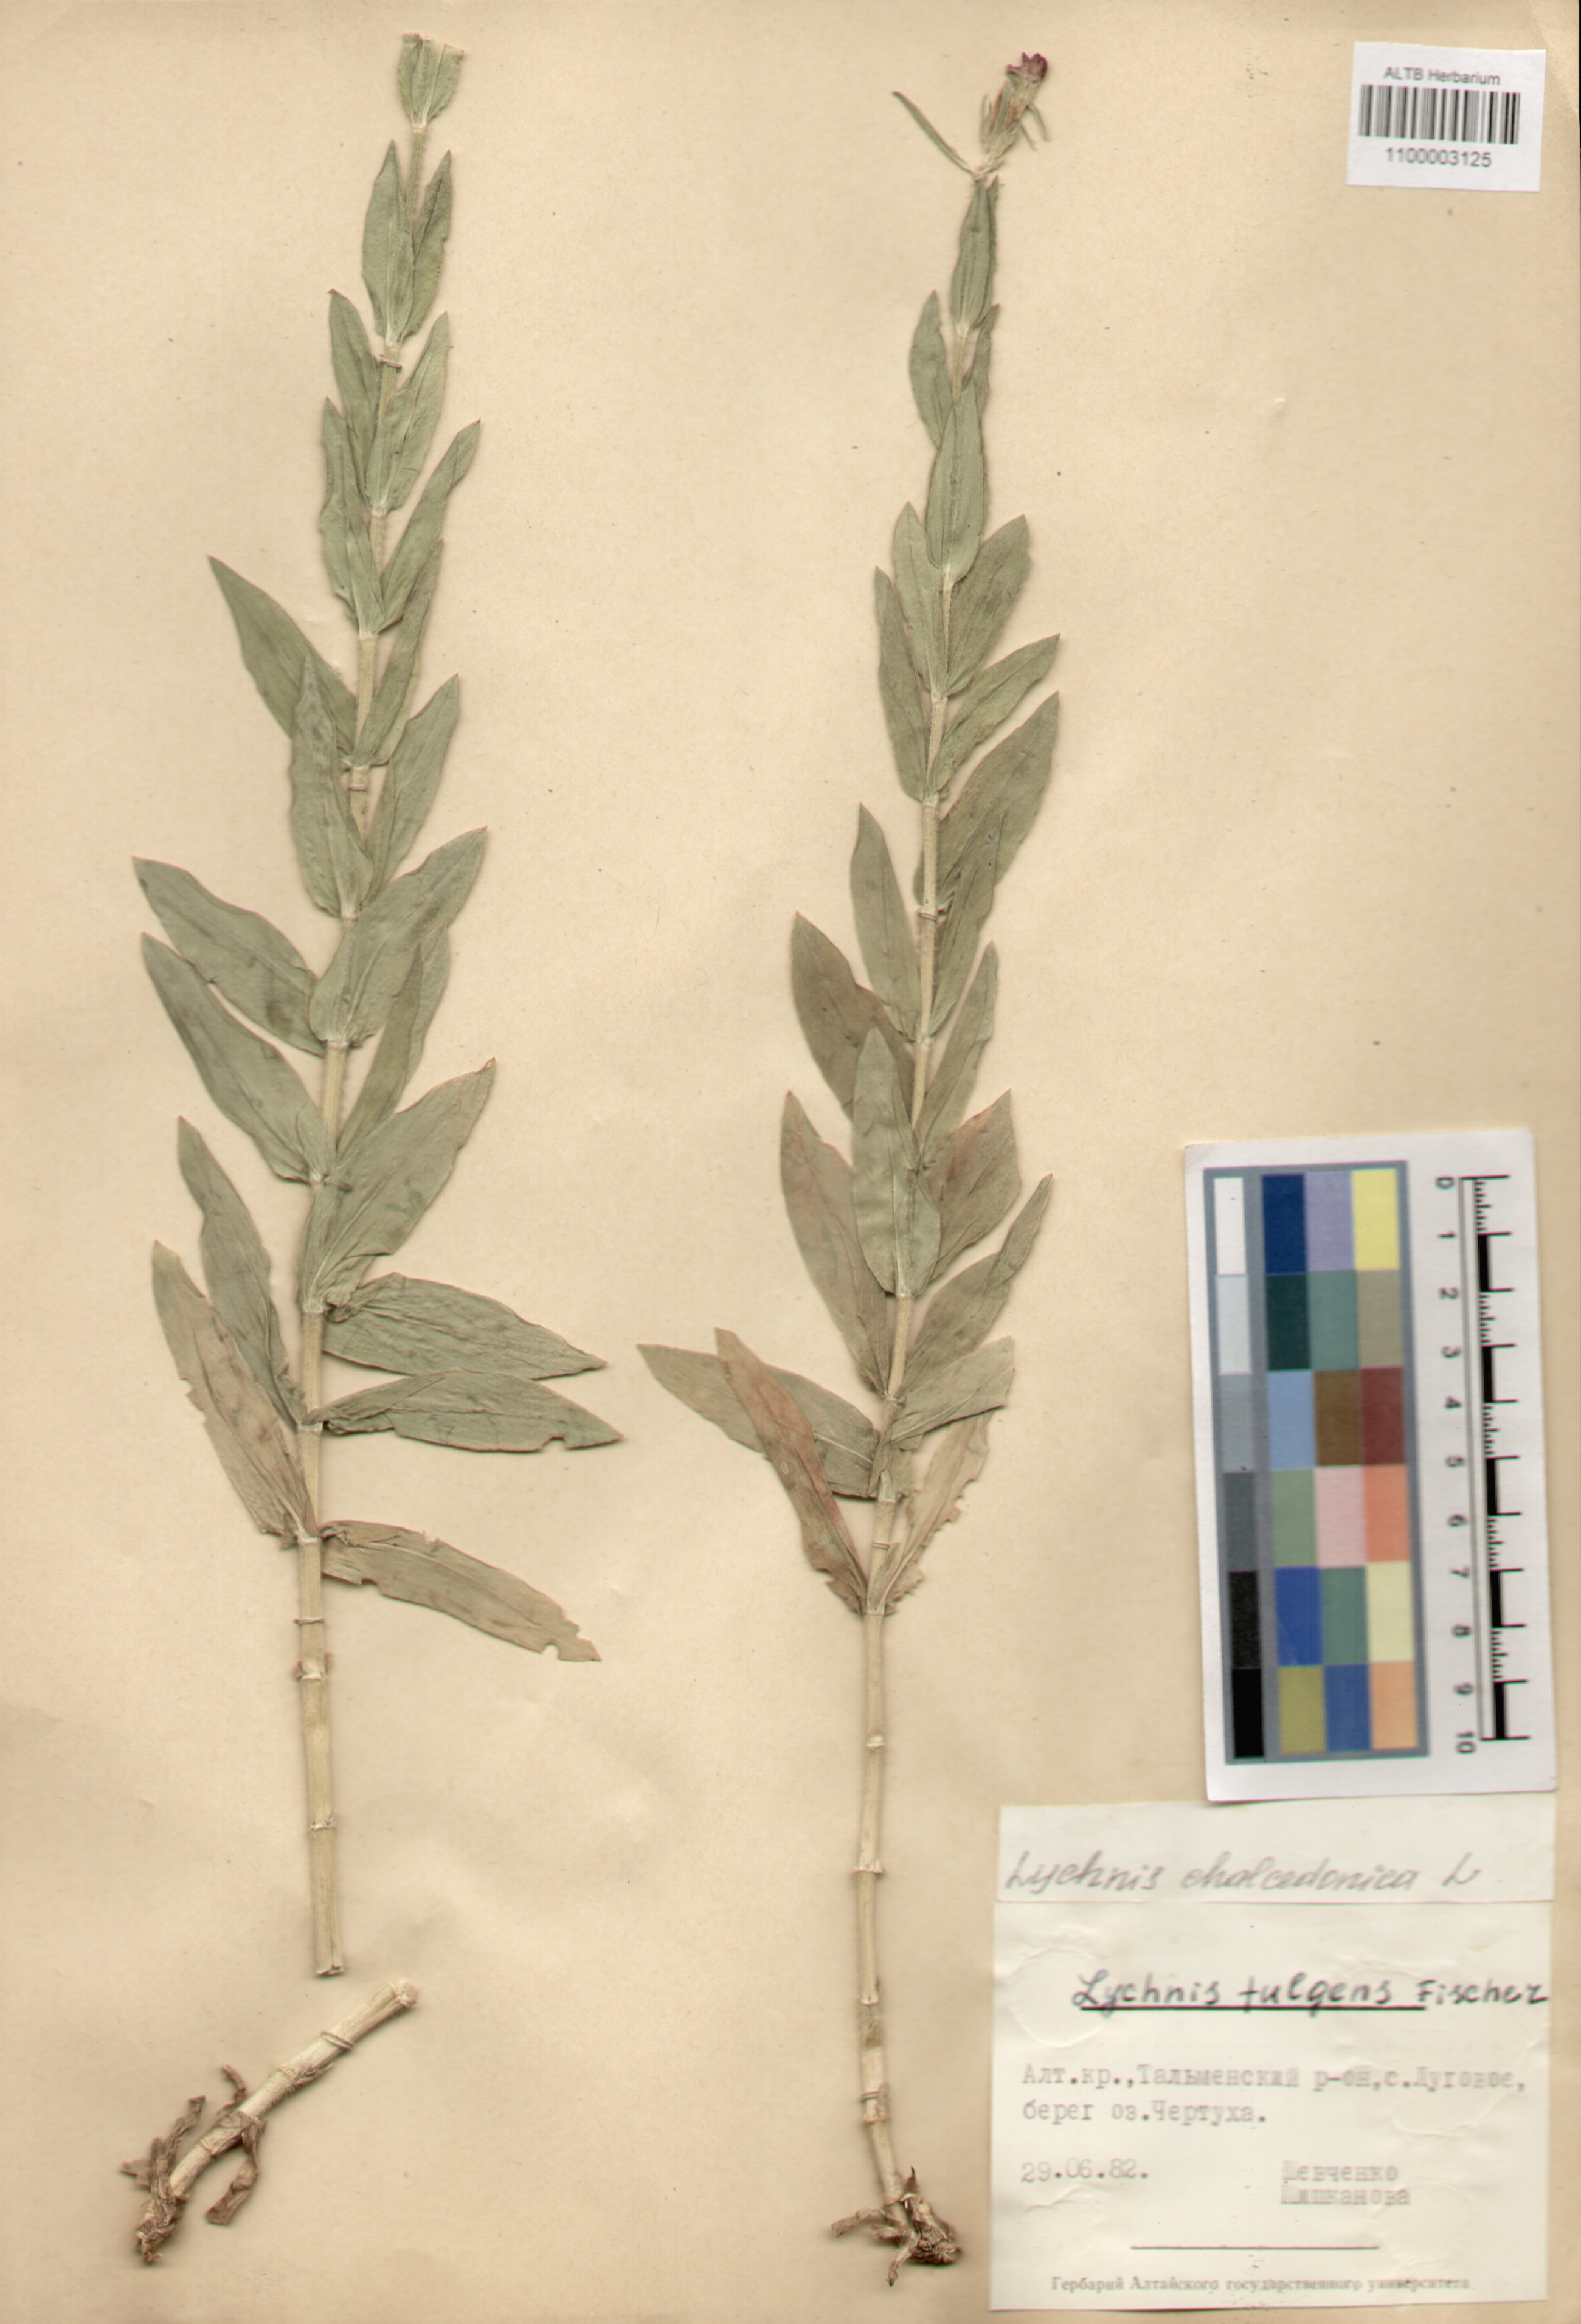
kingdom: Plantae
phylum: Tracheophyta
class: Magnoliopsida
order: Caryophyllales
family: Caryophyllaceae
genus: Silene
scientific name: Silene chalcedonica
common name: Maltese-cross
